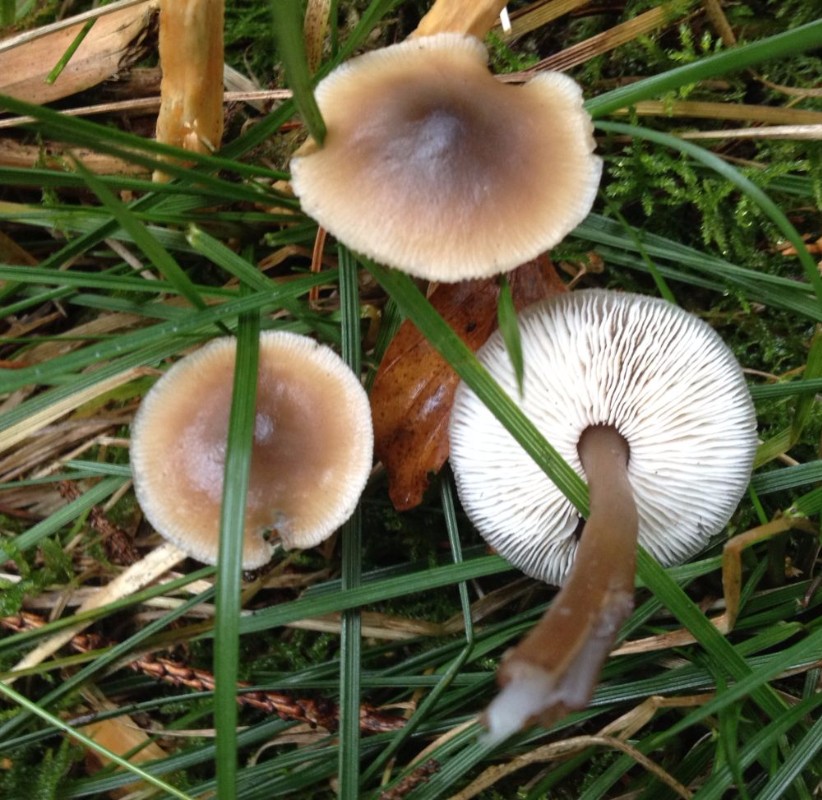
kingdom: Fungi
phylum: Basidiomycota
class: Agaricomycetes
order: Agaricales
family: Omphalotaceae
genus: Rhodocollybia
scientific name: Rhodocollybia asema
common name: horngrå fladhat
